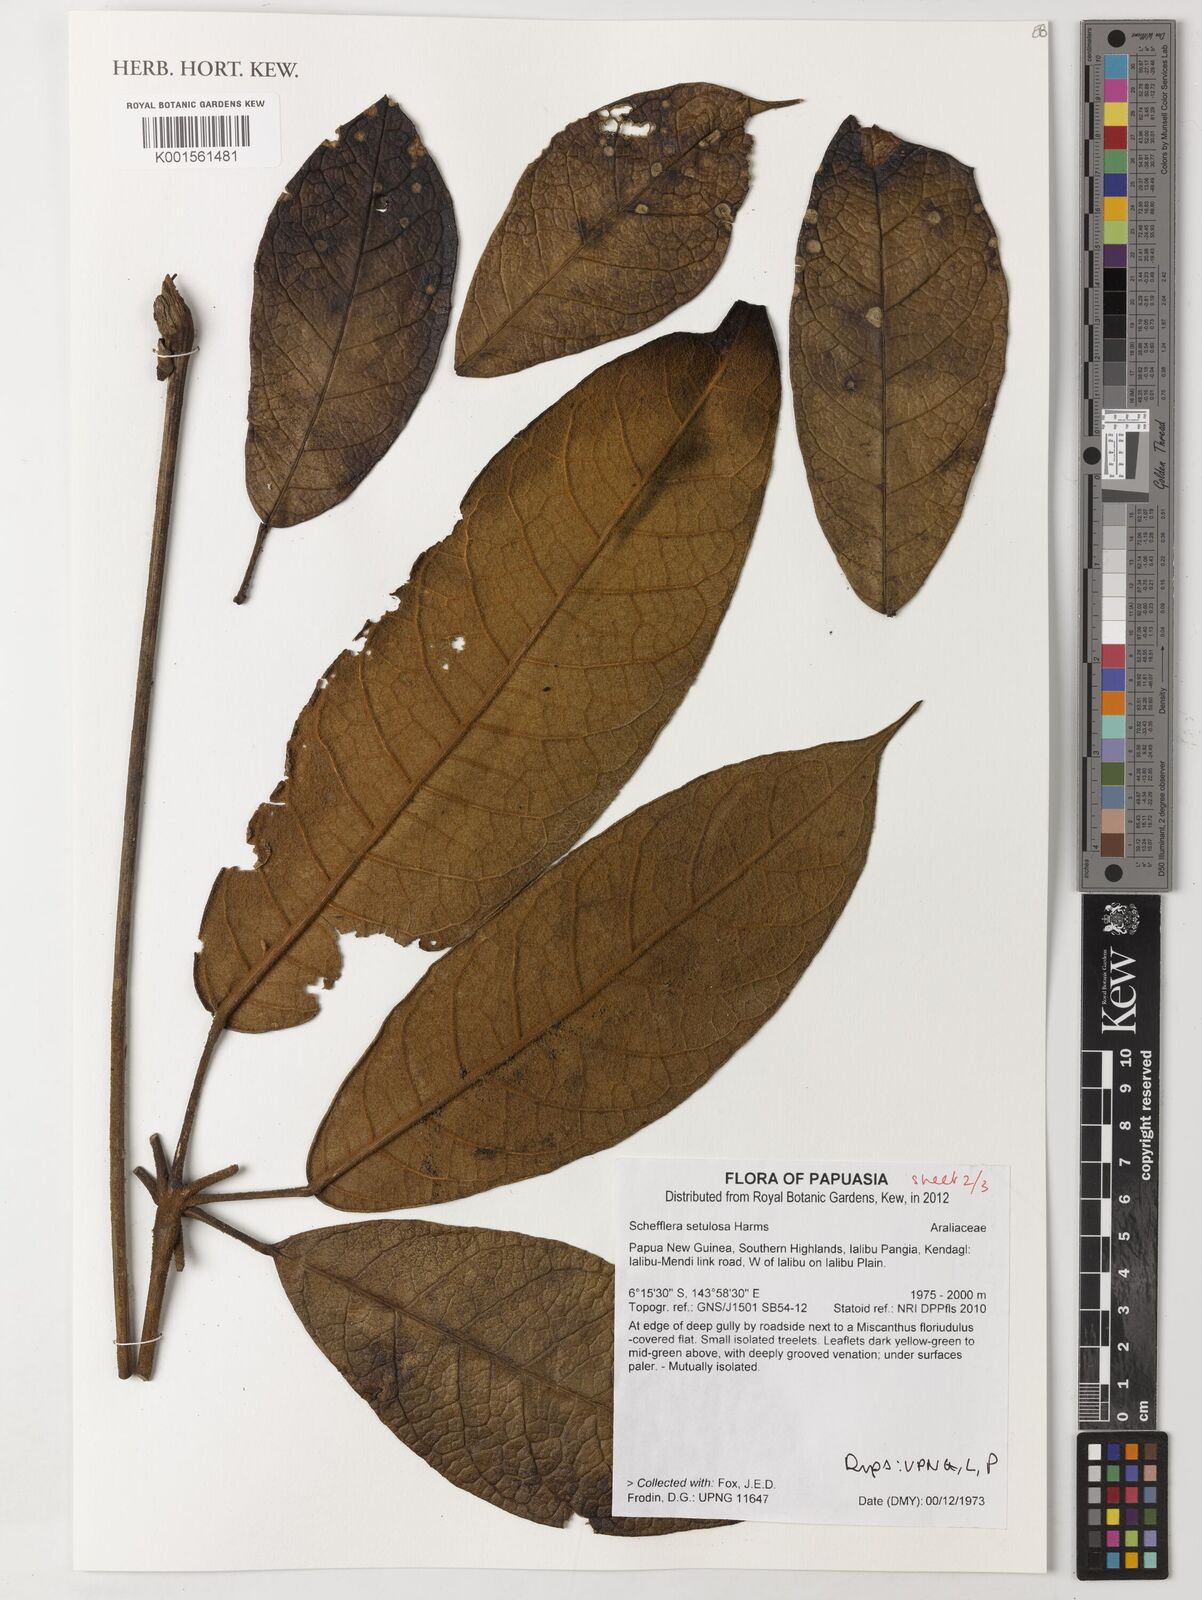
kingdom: Plantae
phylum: Tracheophyta
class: Magnoliopsida
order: Apiales
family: Araliaceae
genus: Heptapleurum
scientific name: Heptapleurum setulosum
